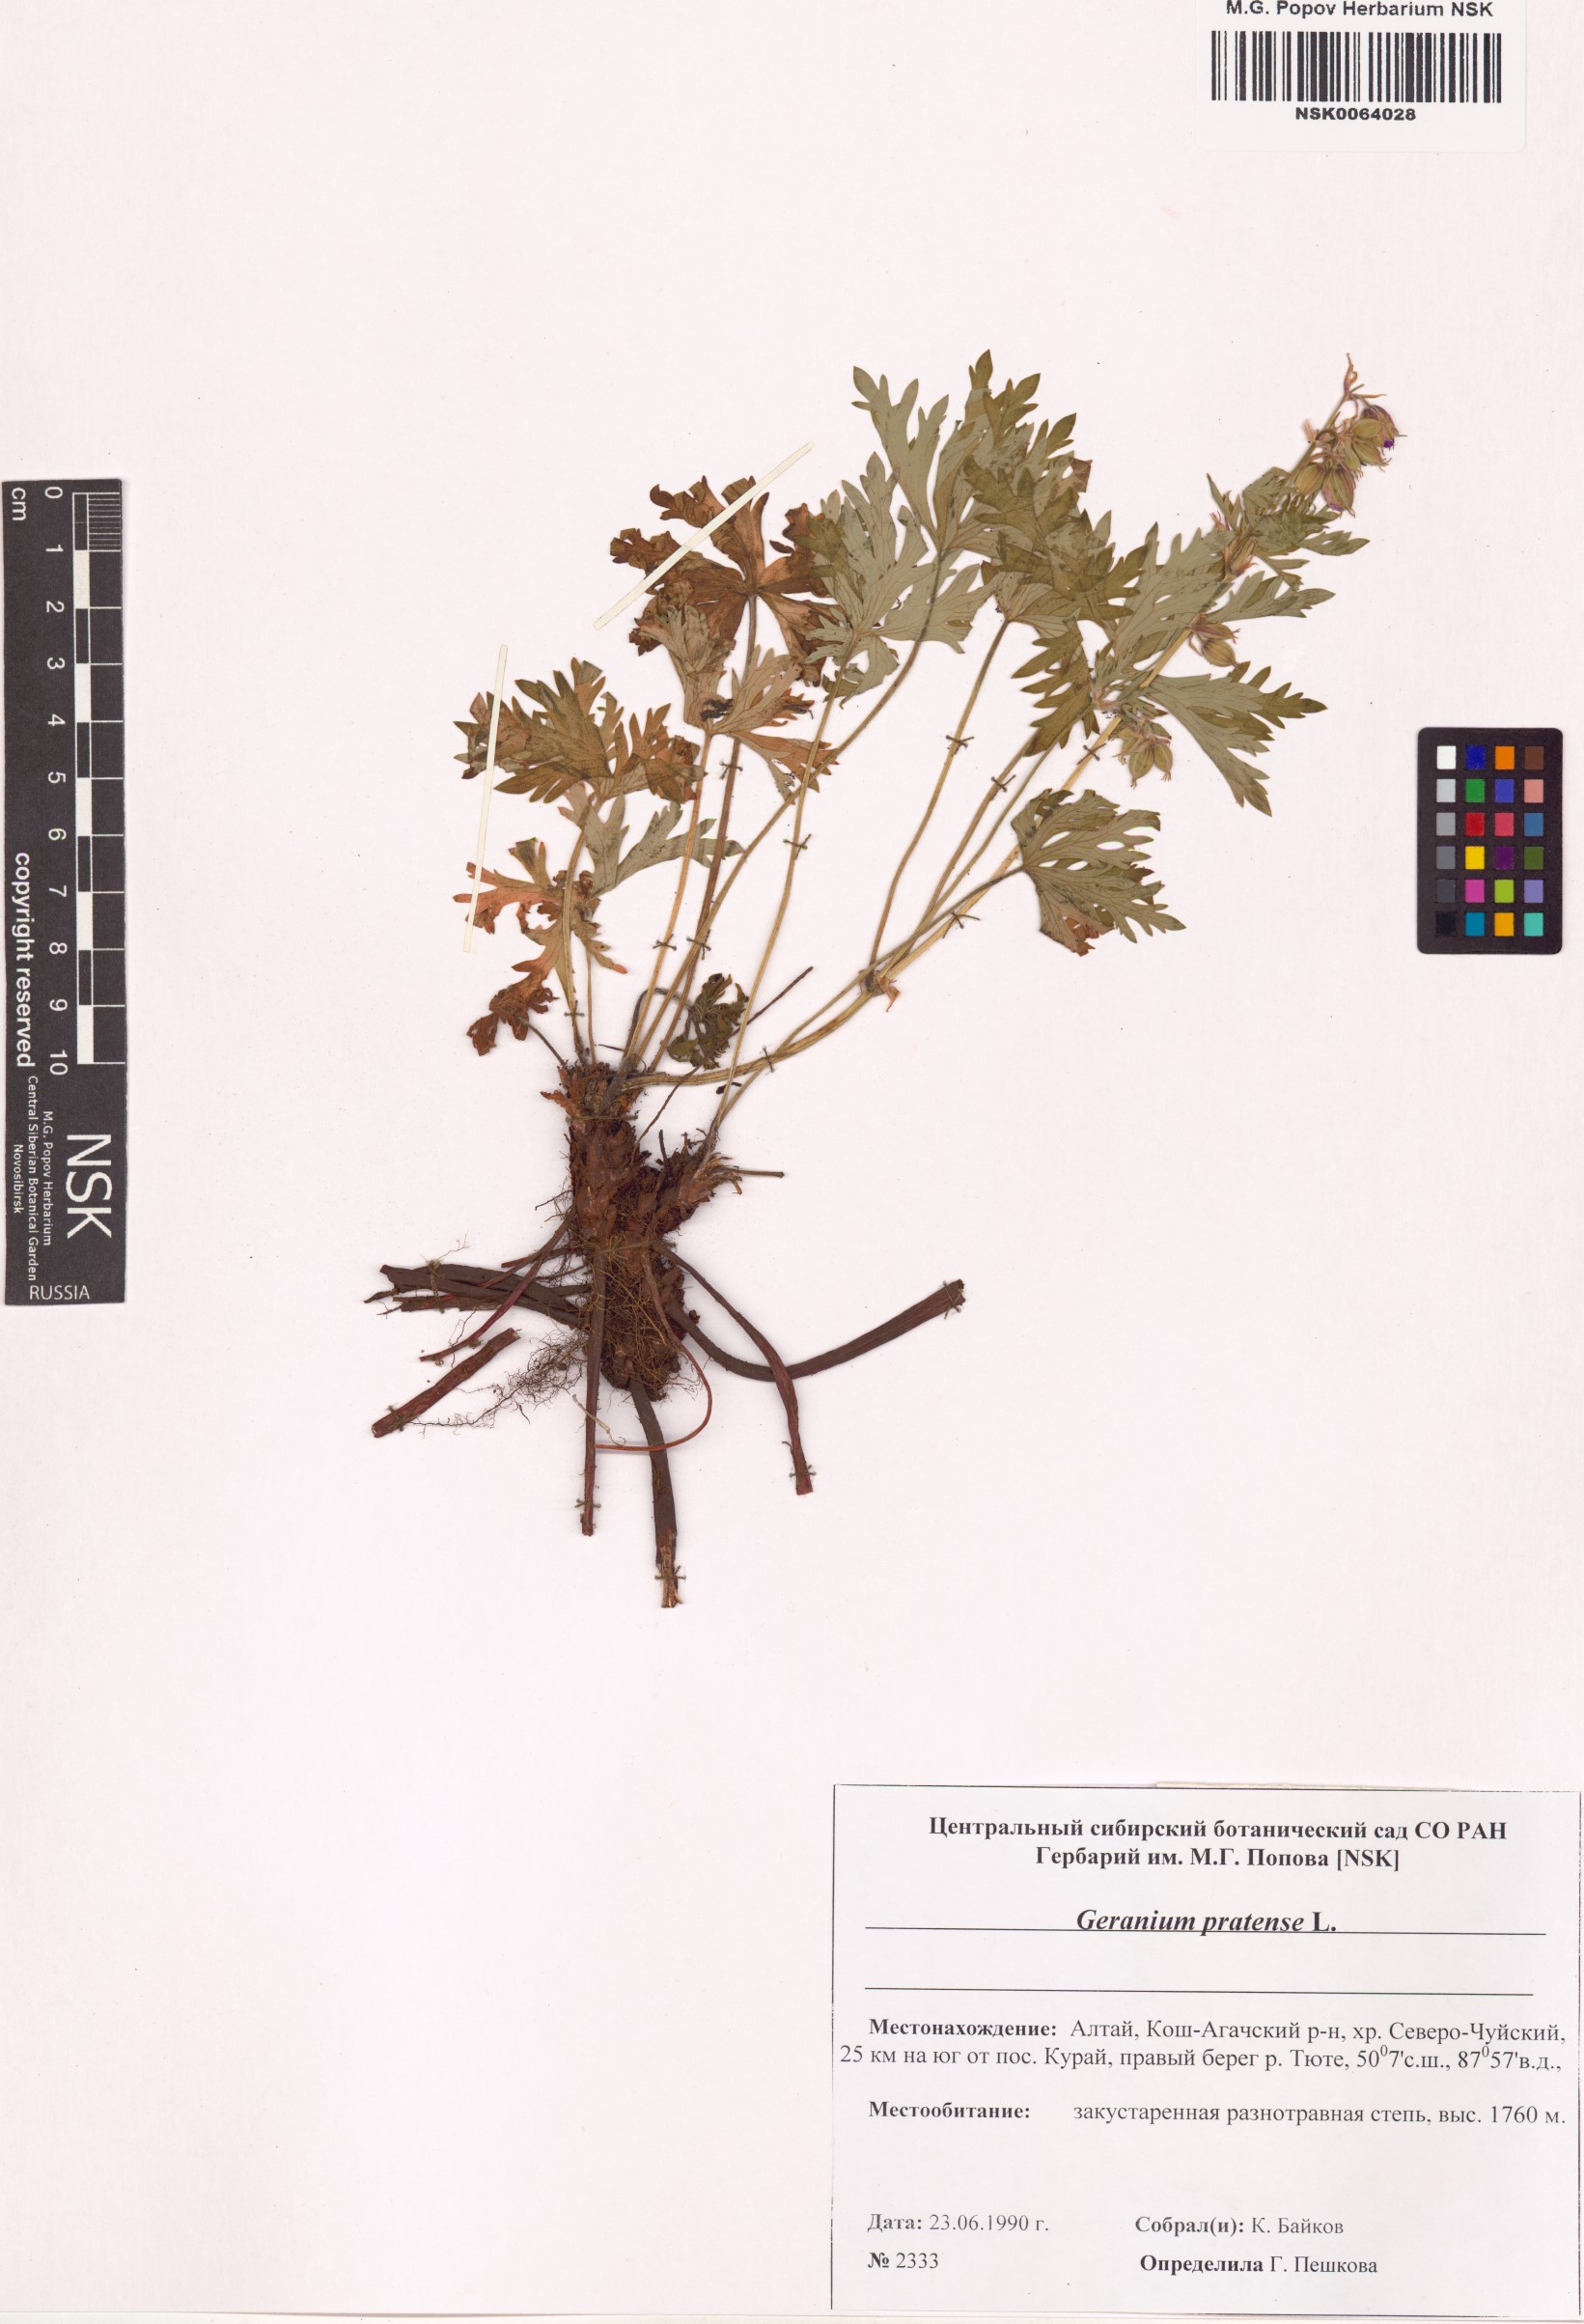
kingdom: Plantae
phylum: Tracheophyta
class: Magnoliopsida
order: Geraniales
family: Geraniaceae
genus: Geranium
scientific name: Geranium pratense
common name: Meadow crane's-bill
